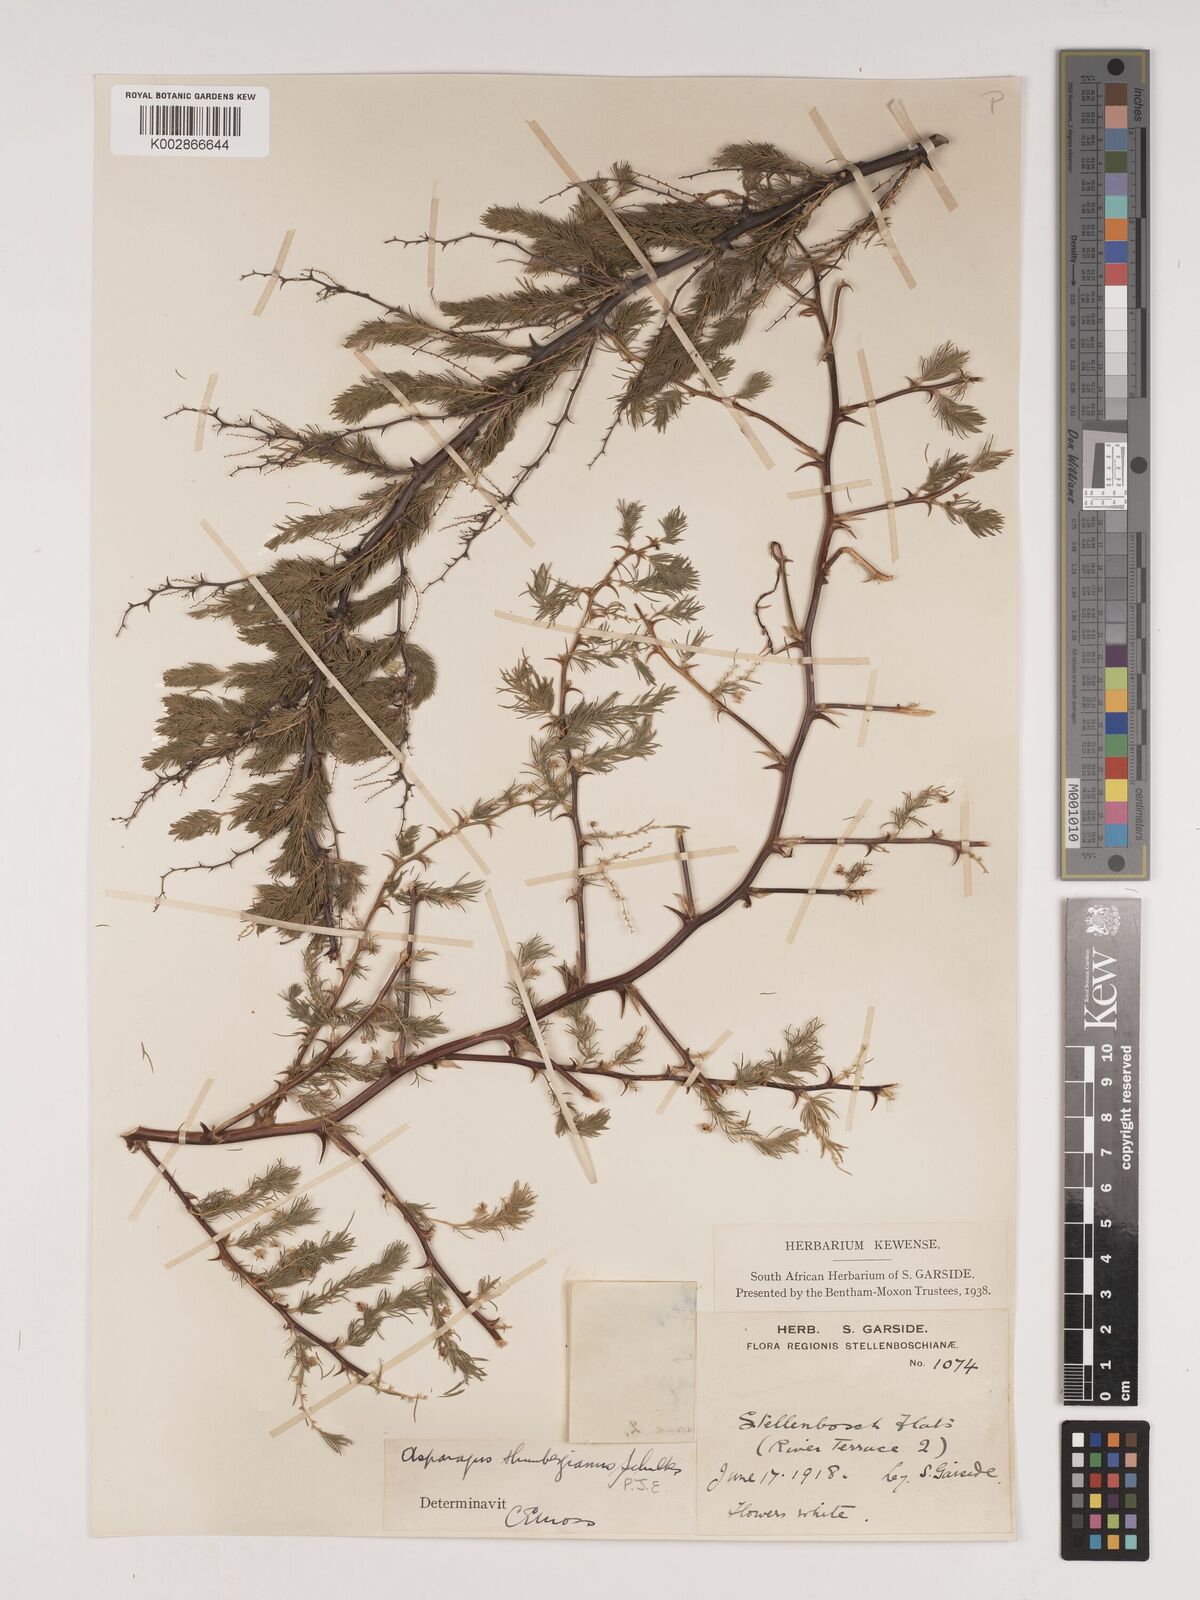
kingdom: Plantae
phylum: Tracheophyta
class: Liliopsida
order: Asparagales
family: Asparagaceae
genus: Asparagus
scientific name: Asparagus rubicundus
